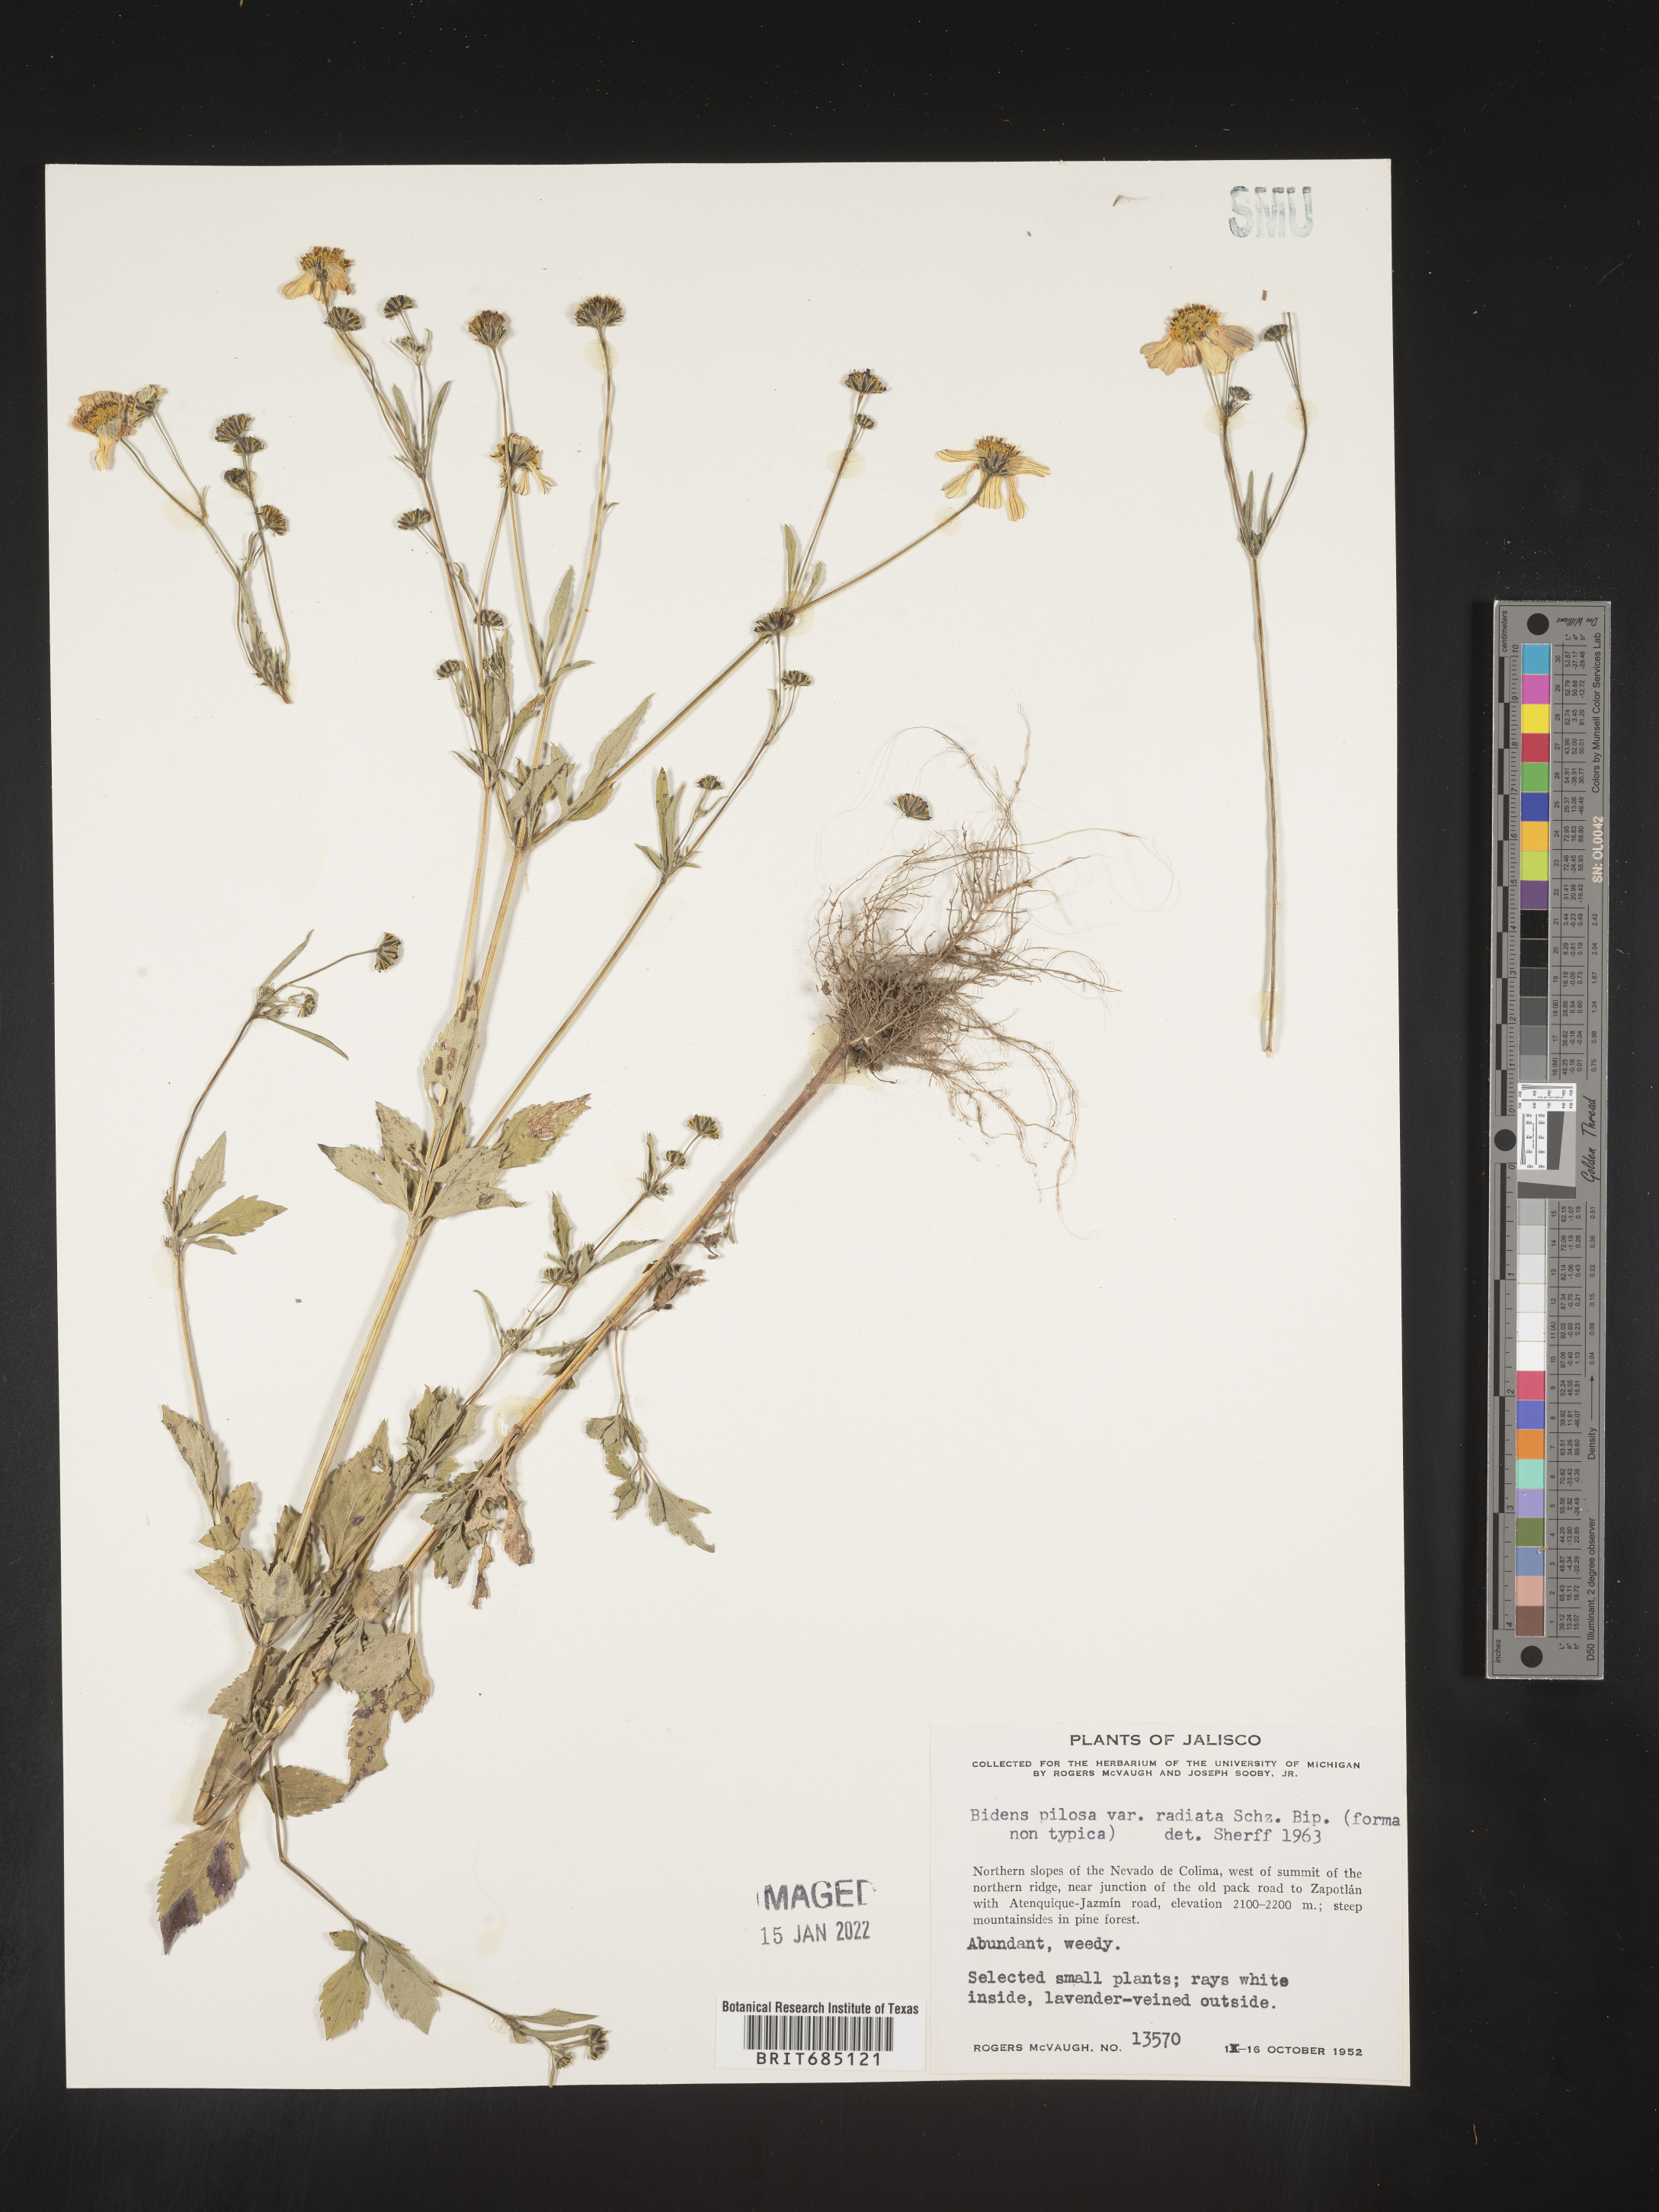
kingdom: Plantae
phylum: Tracheophyta
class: Magnoliopsida
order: Asterales
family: Asteraceae
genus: Bidens
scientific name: Bidens
